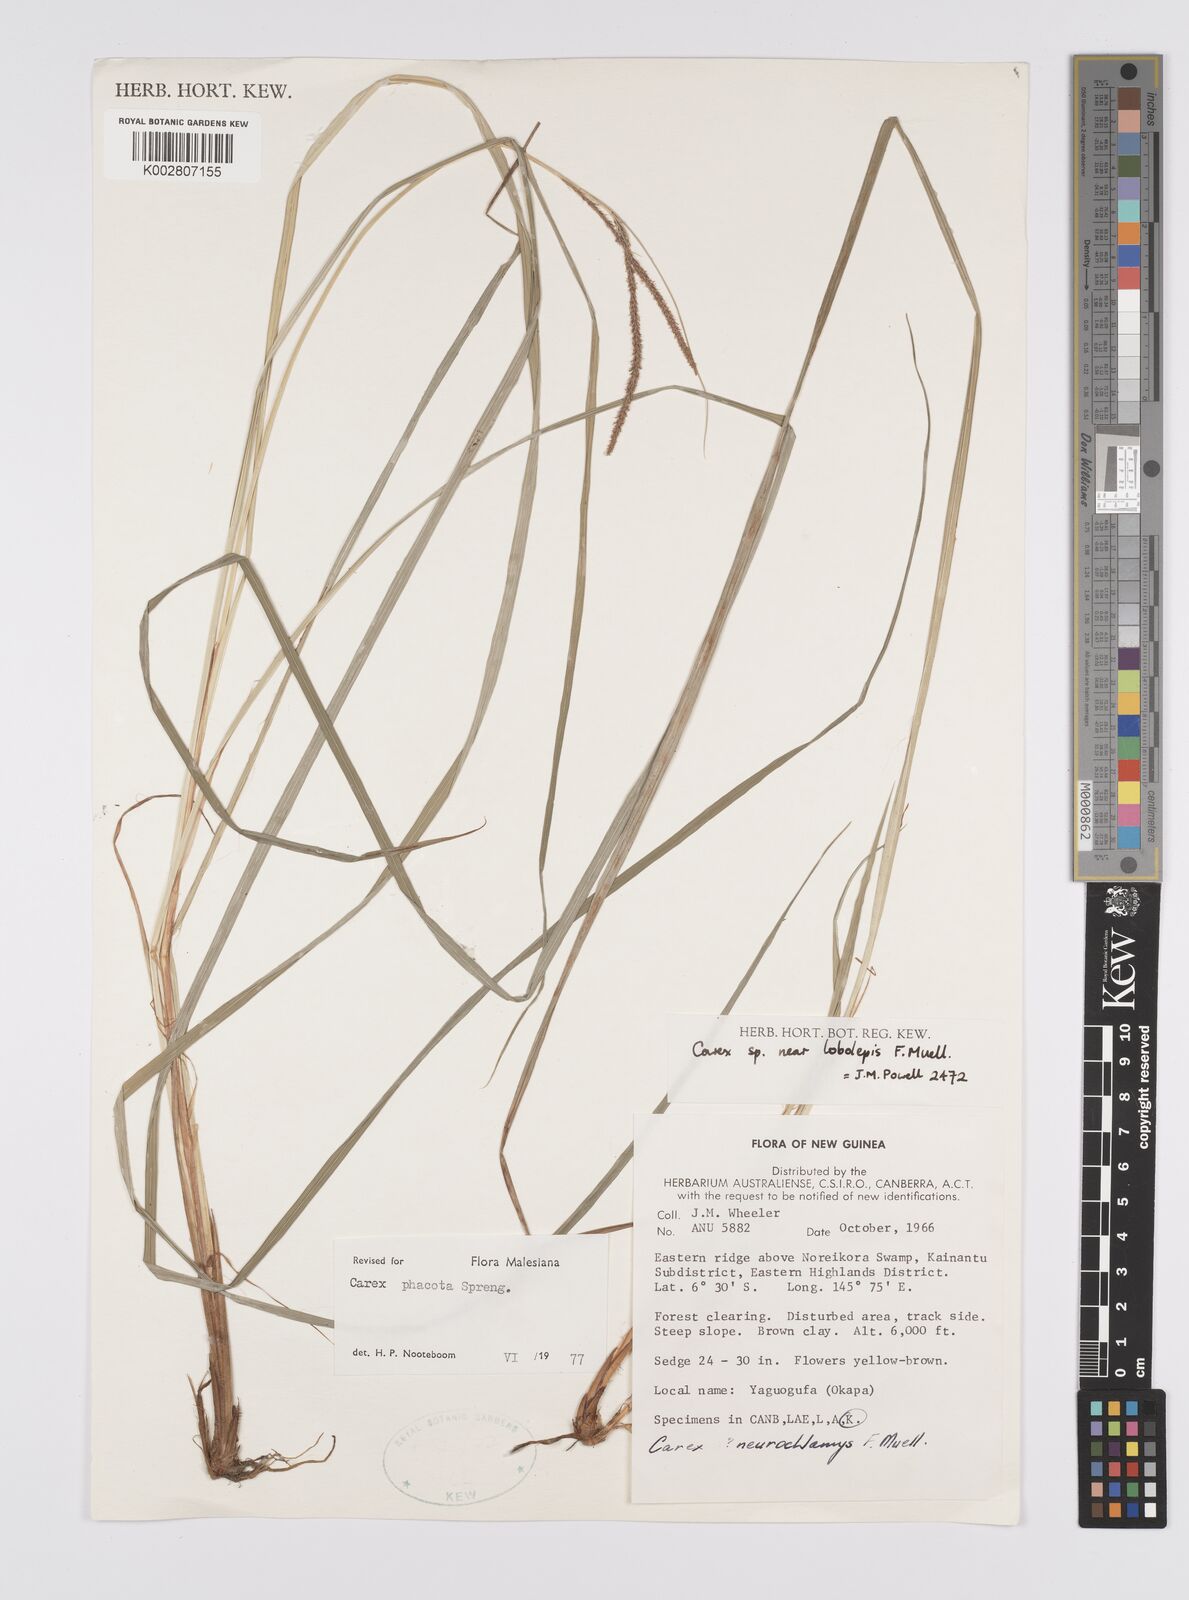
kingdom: Plantae
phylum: Tracheophyta
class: Liliopsida
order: Poales
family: Cyperaceae
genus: Carex
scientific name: Carex phacota
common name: Lakeshore sedge
